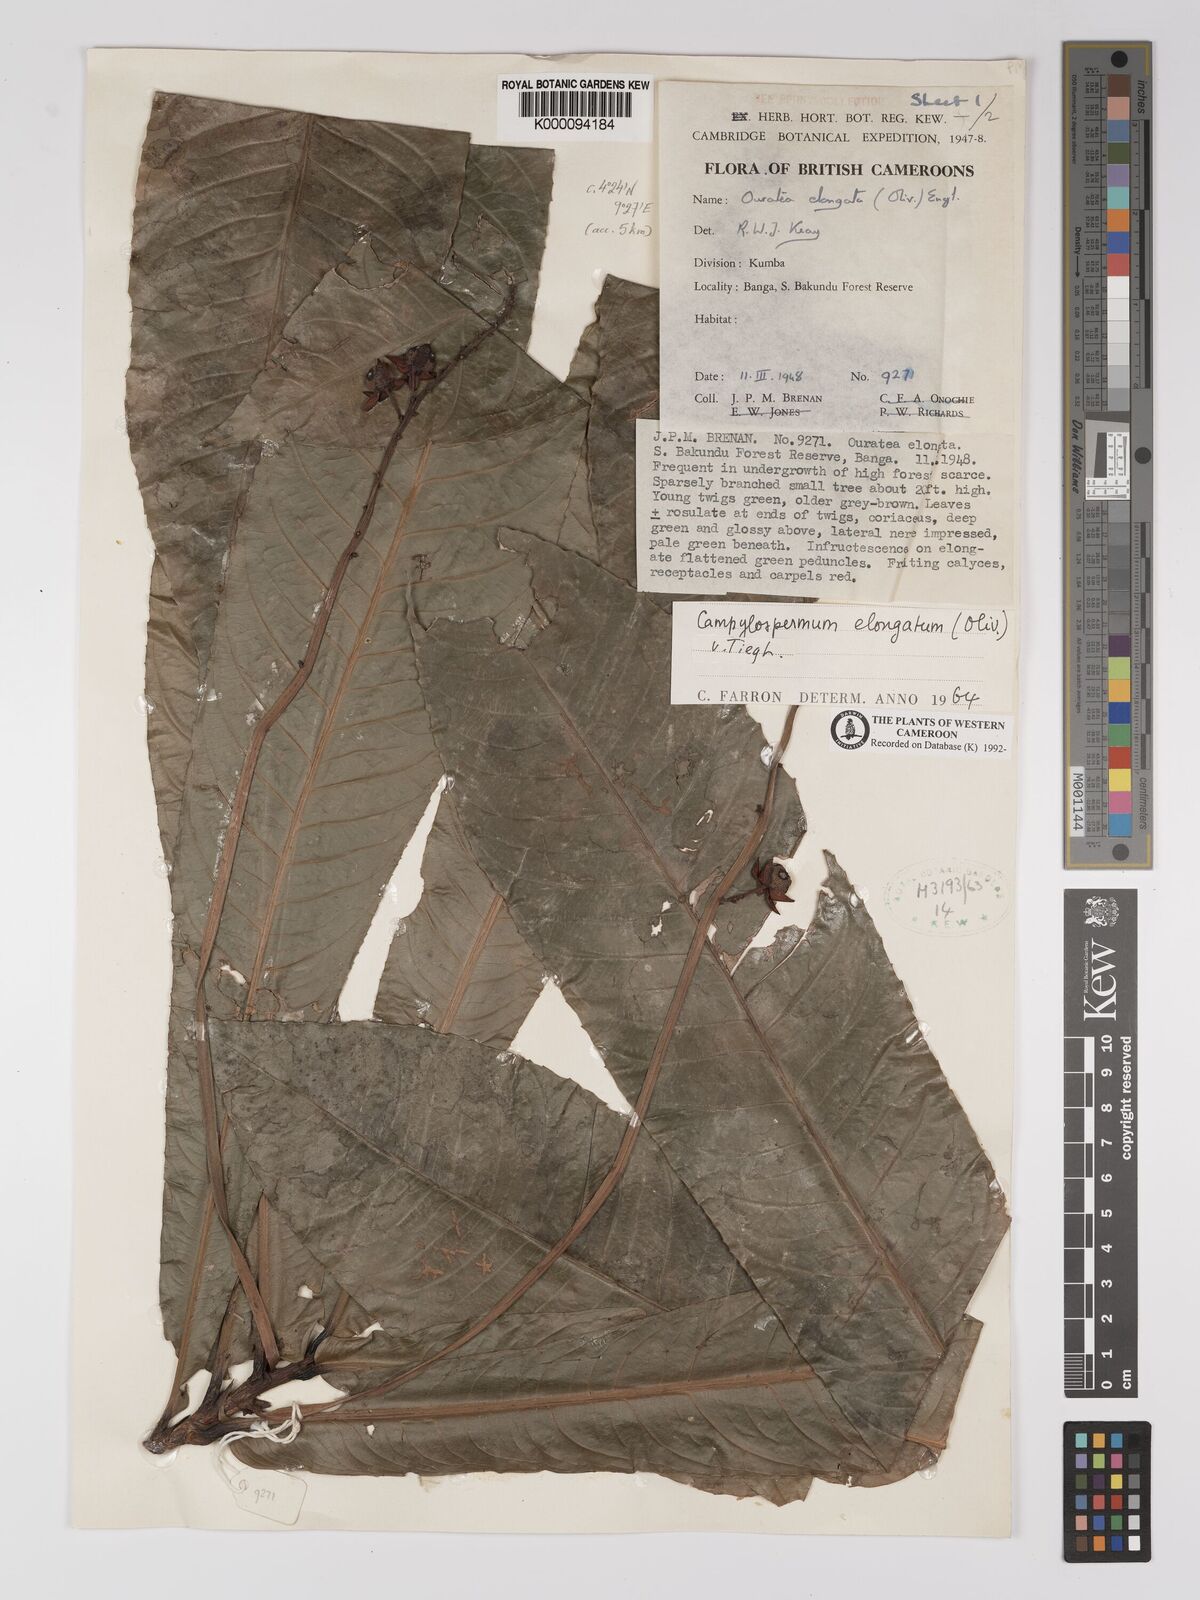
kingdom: Plantae
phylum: Tracheophyta
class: Magnoliopsida
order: Malpighiales
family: Ochnaceae
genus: Gomphia
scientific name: Gomphia elongata
